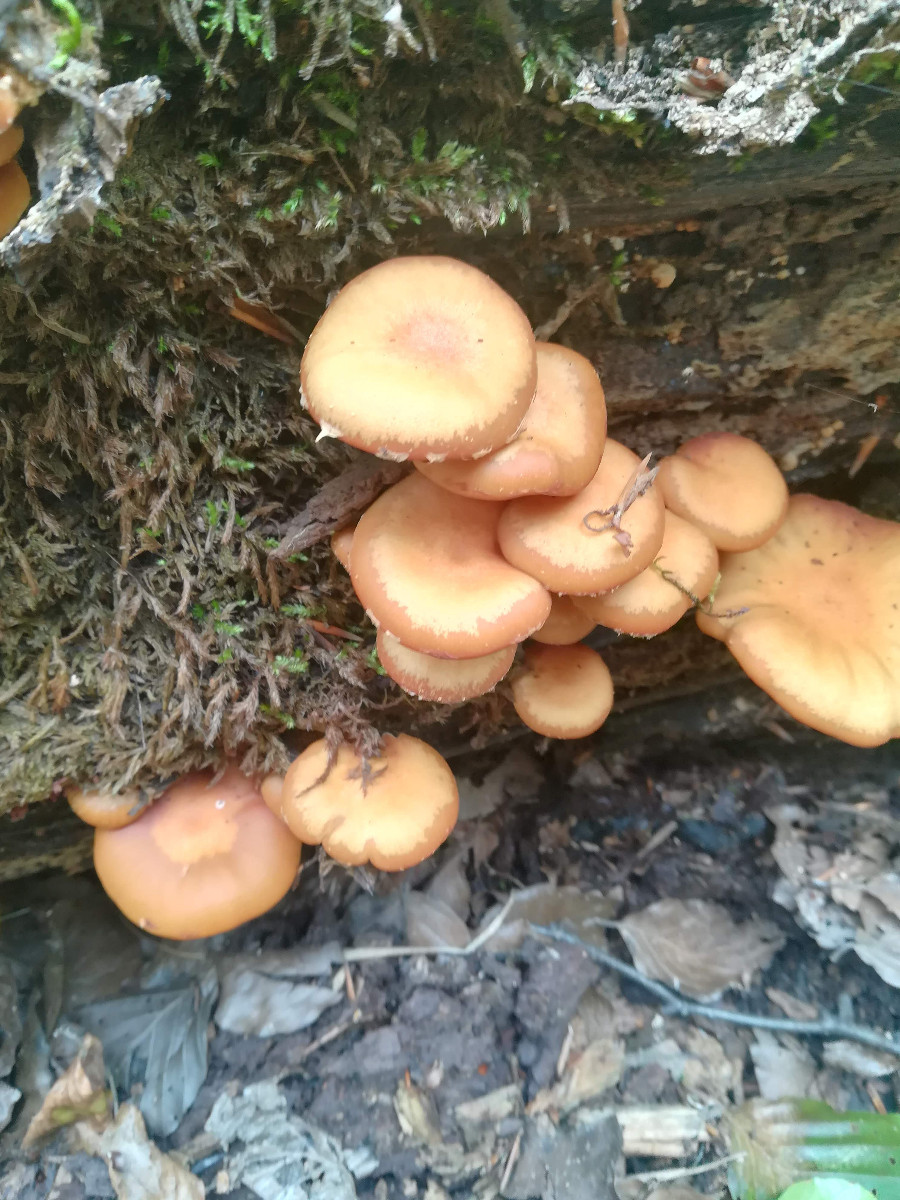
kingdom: Fungi
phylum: Basidiomycota
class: Agaricomycetes
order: Agaricales
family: Strophariaceae
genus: Kuehneromyces
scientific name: Kuehneromyces mutabilis
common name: foranderlig skælhat
